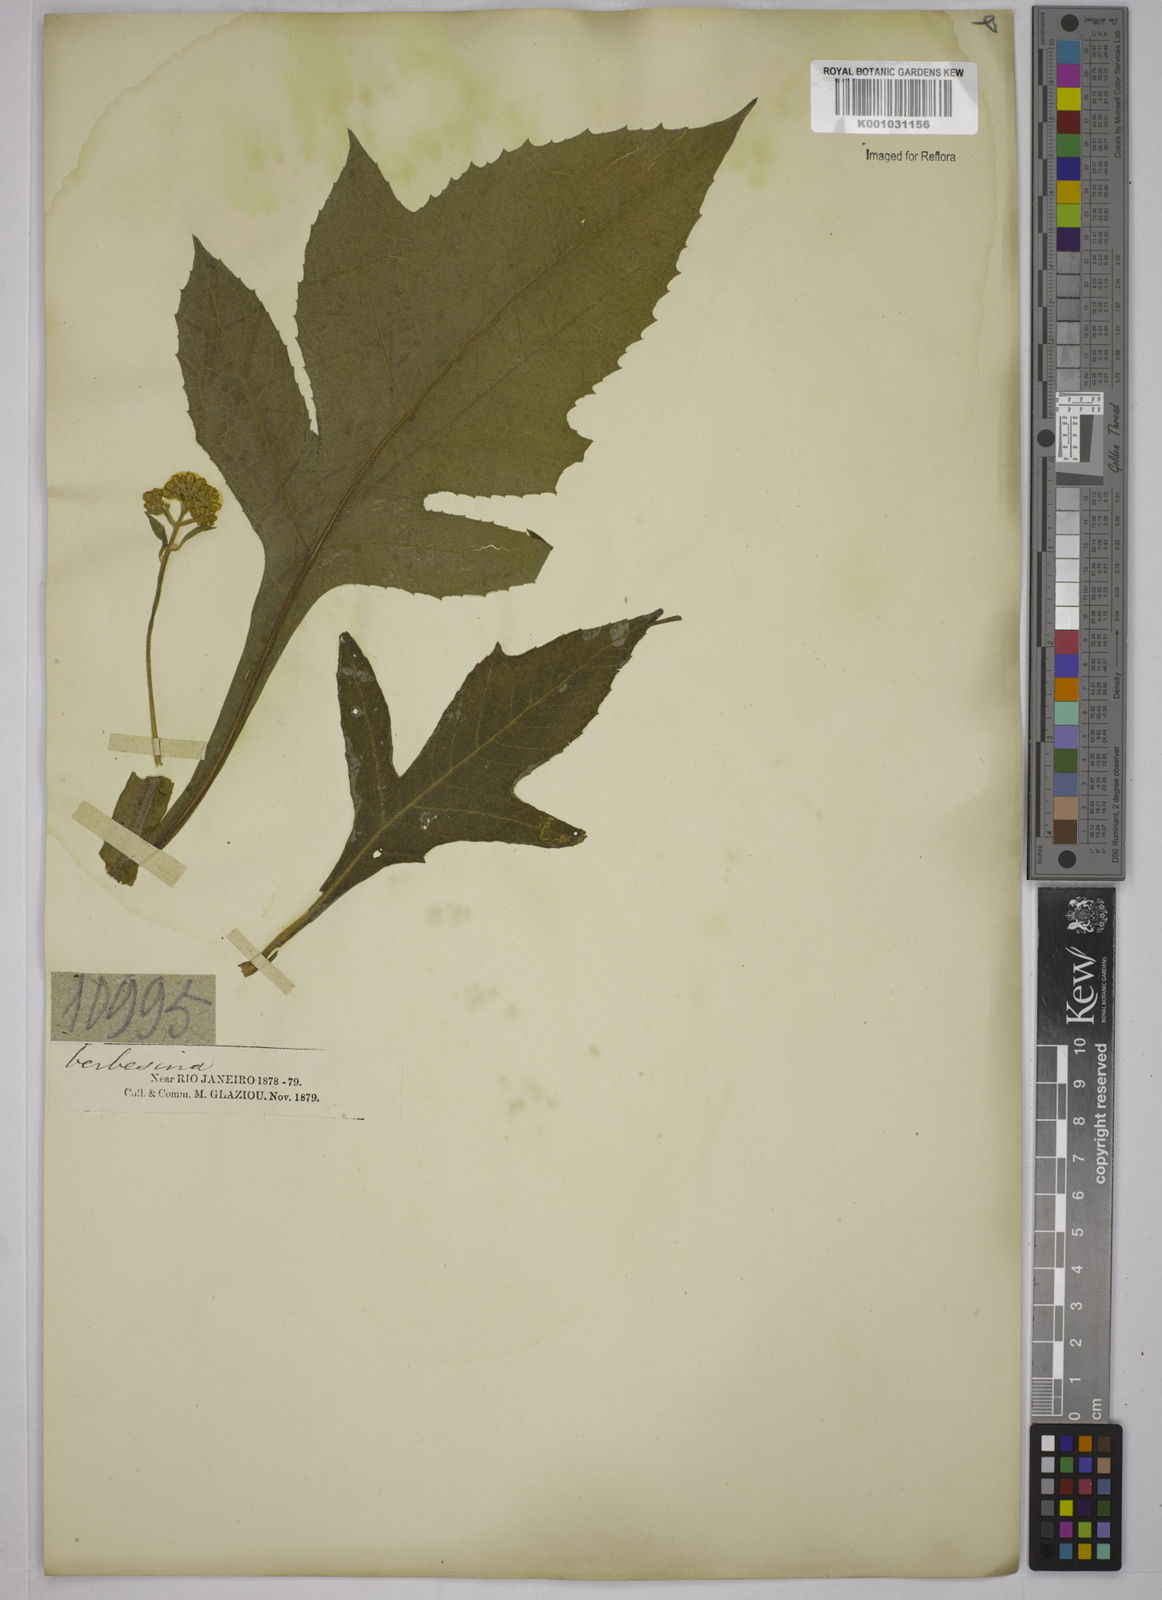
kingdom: Plantae
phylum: Tracheophyta
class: Magnoliopsida
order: Asterales
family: Asteraceae
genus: Verbesina
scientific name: Verbesina macrophylla
